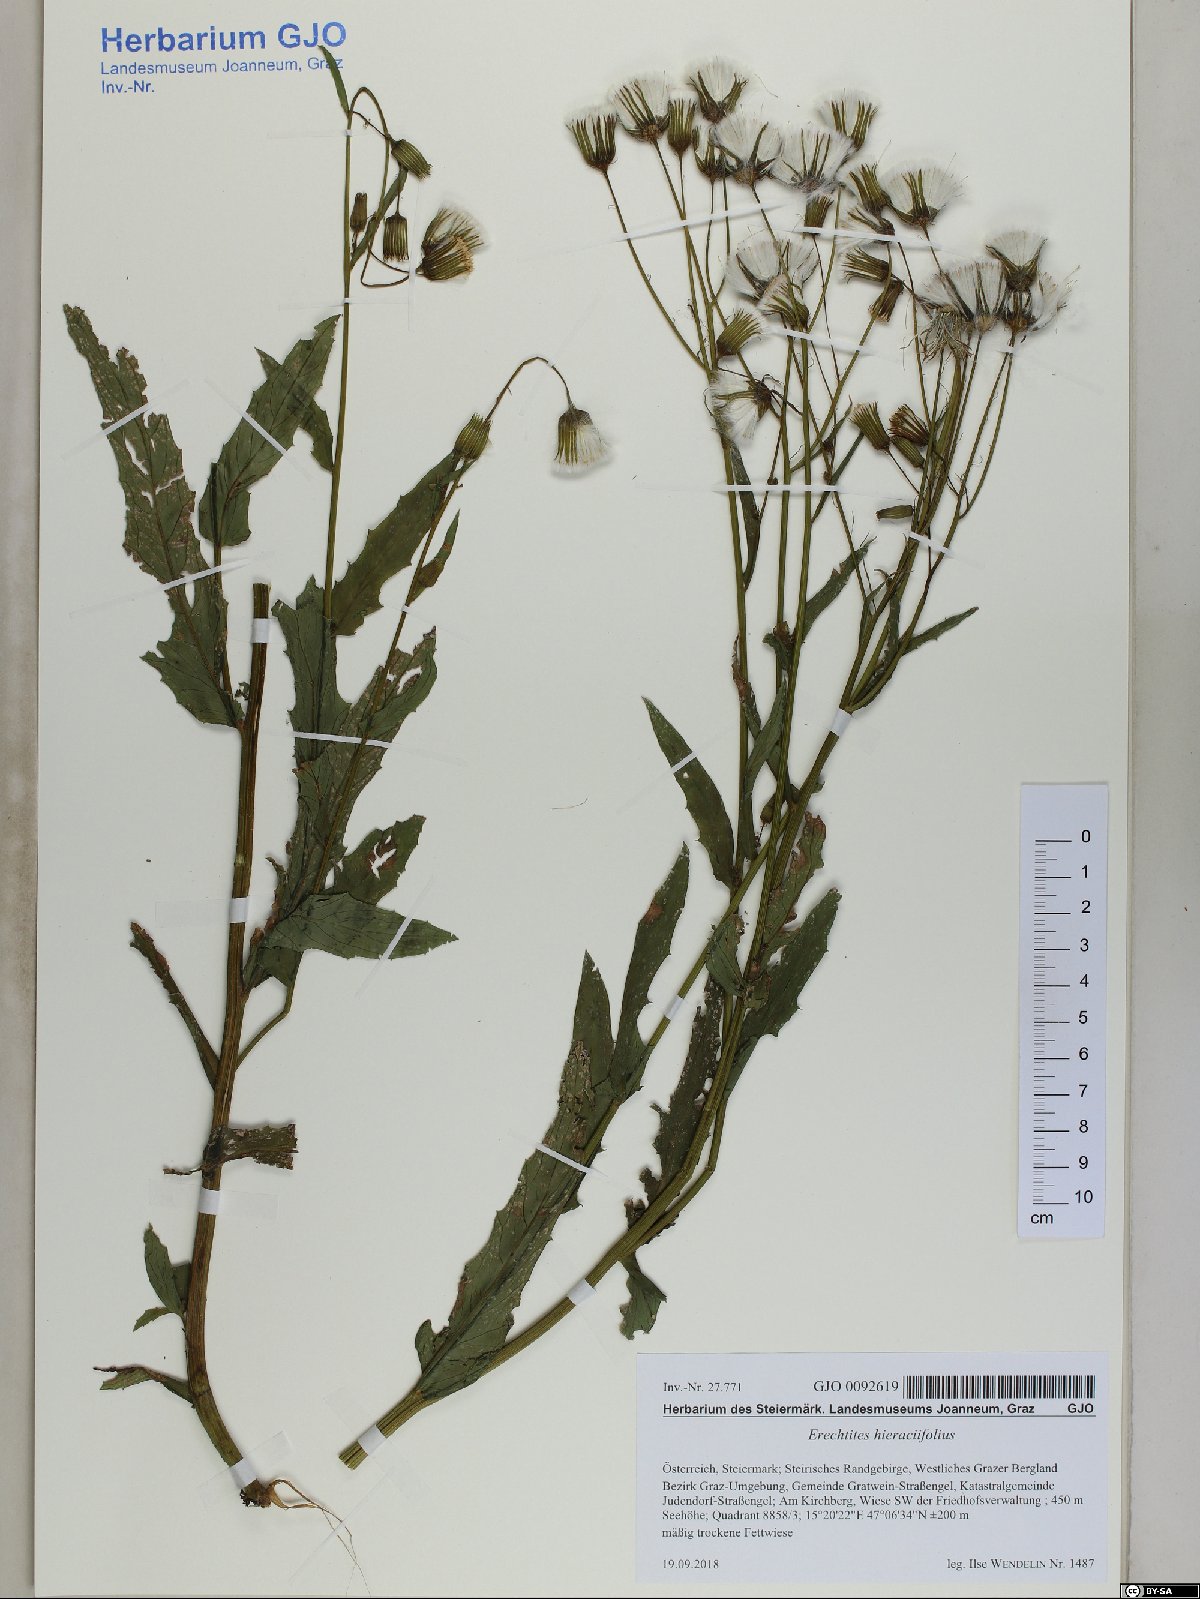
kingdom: Plantae
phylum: Tracheophyta
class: Magnoliopsida
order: Asterales
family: Asteraceae
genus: Erechtites
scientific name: Erechtites hieraciifolius
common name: American burnweed
